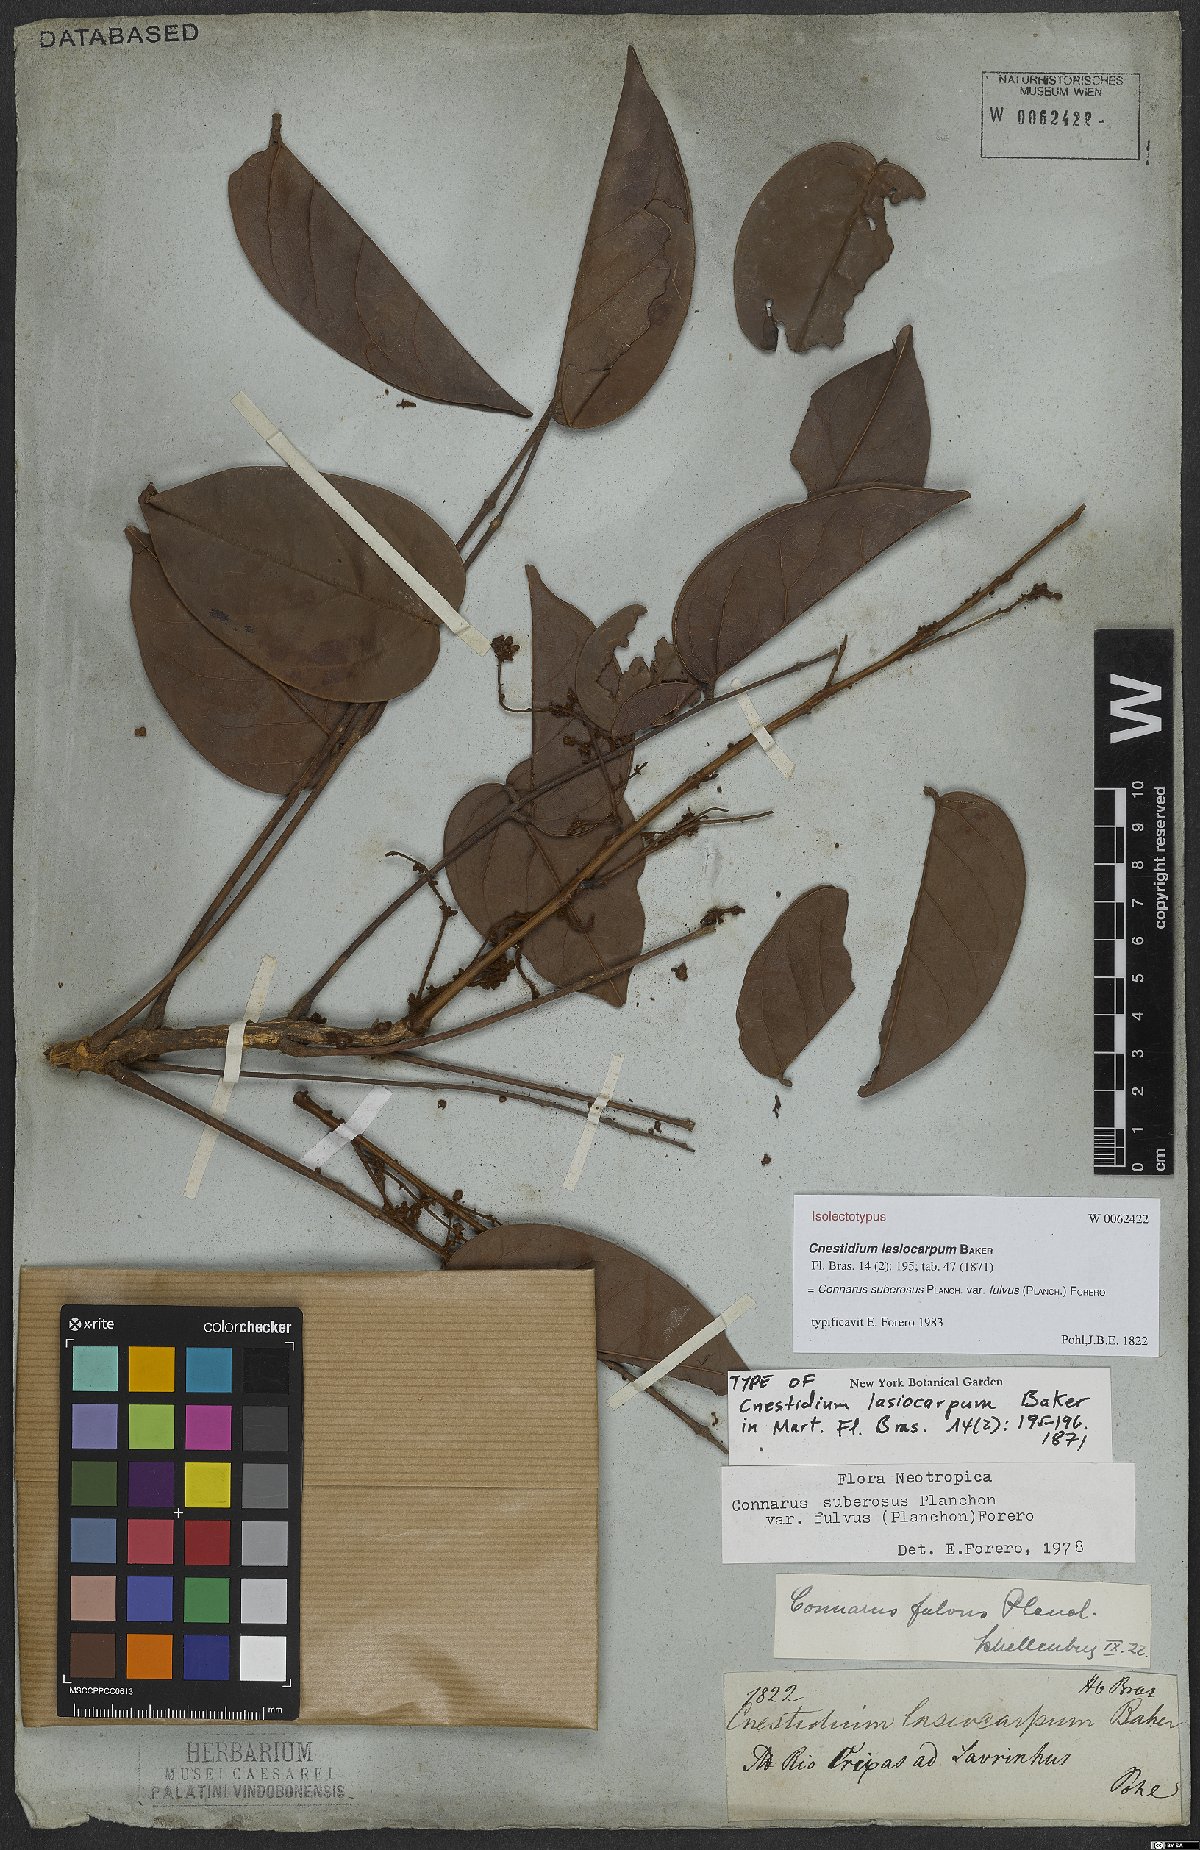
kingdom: Plantae
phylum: Tracheophyta
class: Magnoliopsida
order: Oxalidales
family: Connaraceae
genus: Connarus
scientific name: Connarus suberosus
